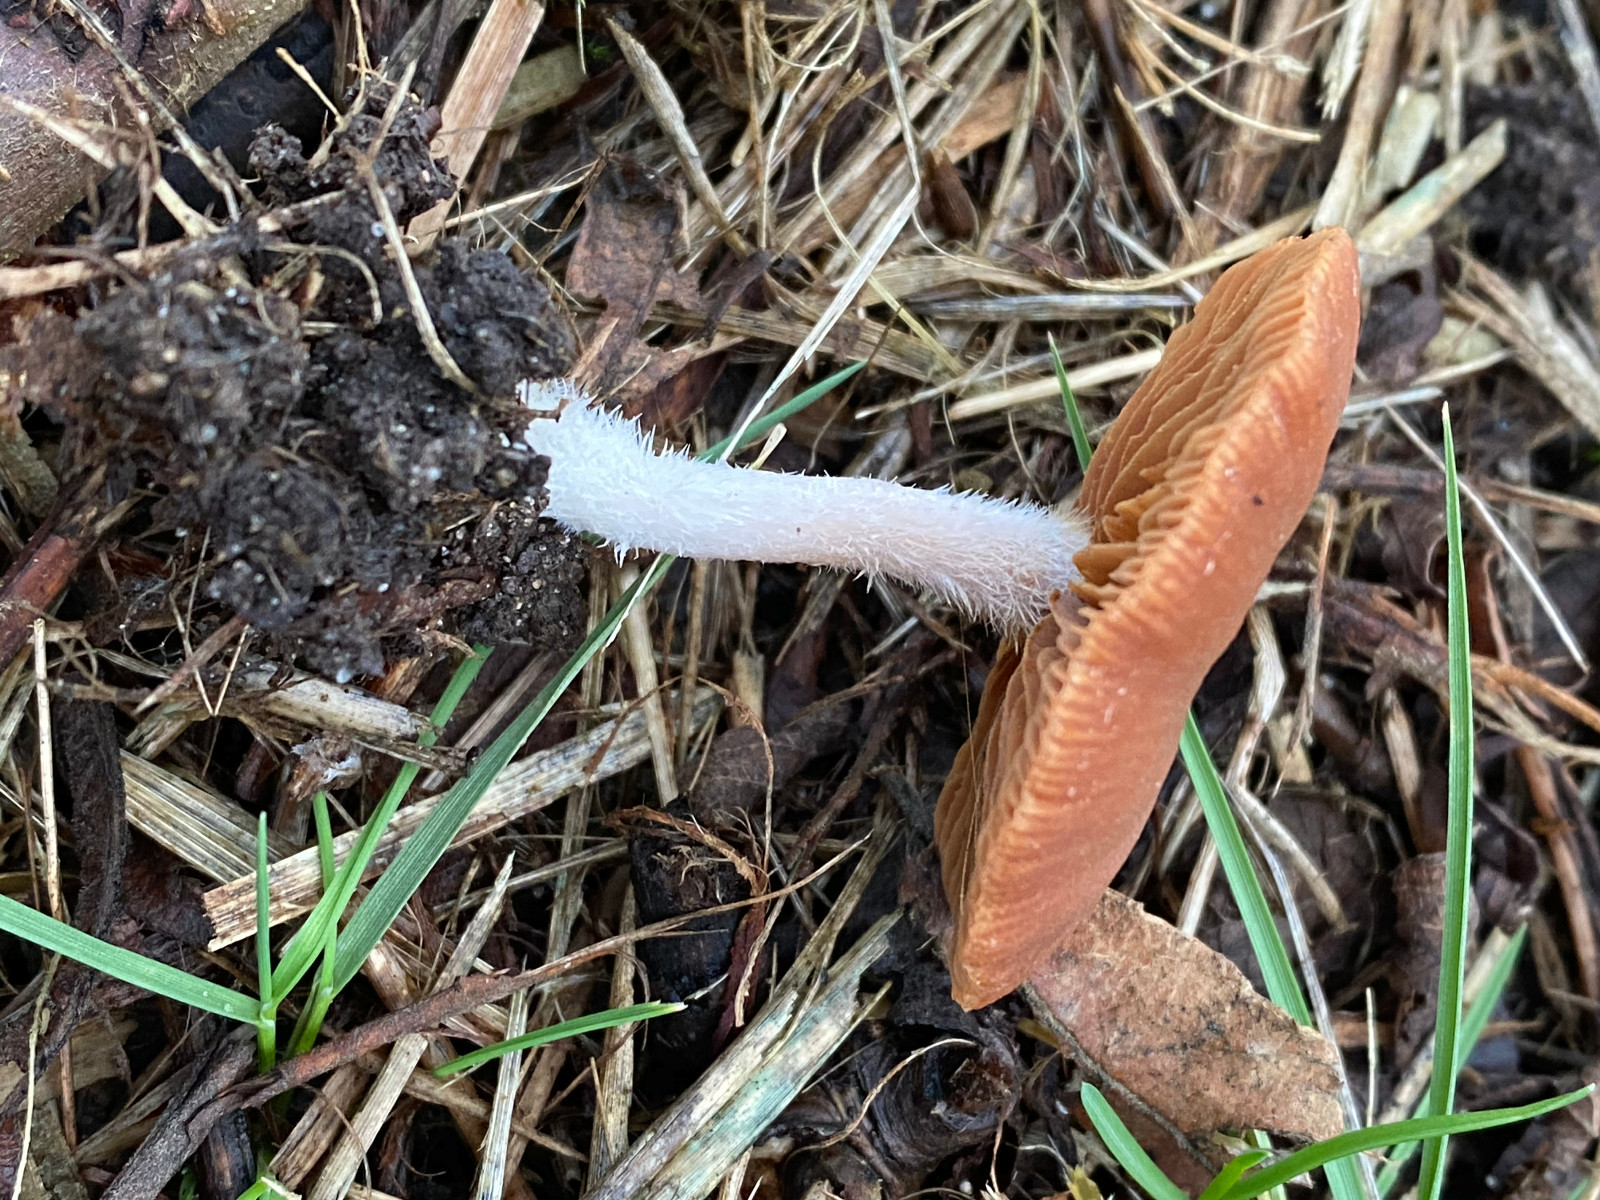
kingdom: Fungi
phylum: Basidiomycota
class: Agaricomycetes
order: Agaricales
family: Tubariaceae
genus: Tubaria
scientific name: Tubaria furfuracea
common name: kliddet fnughat
